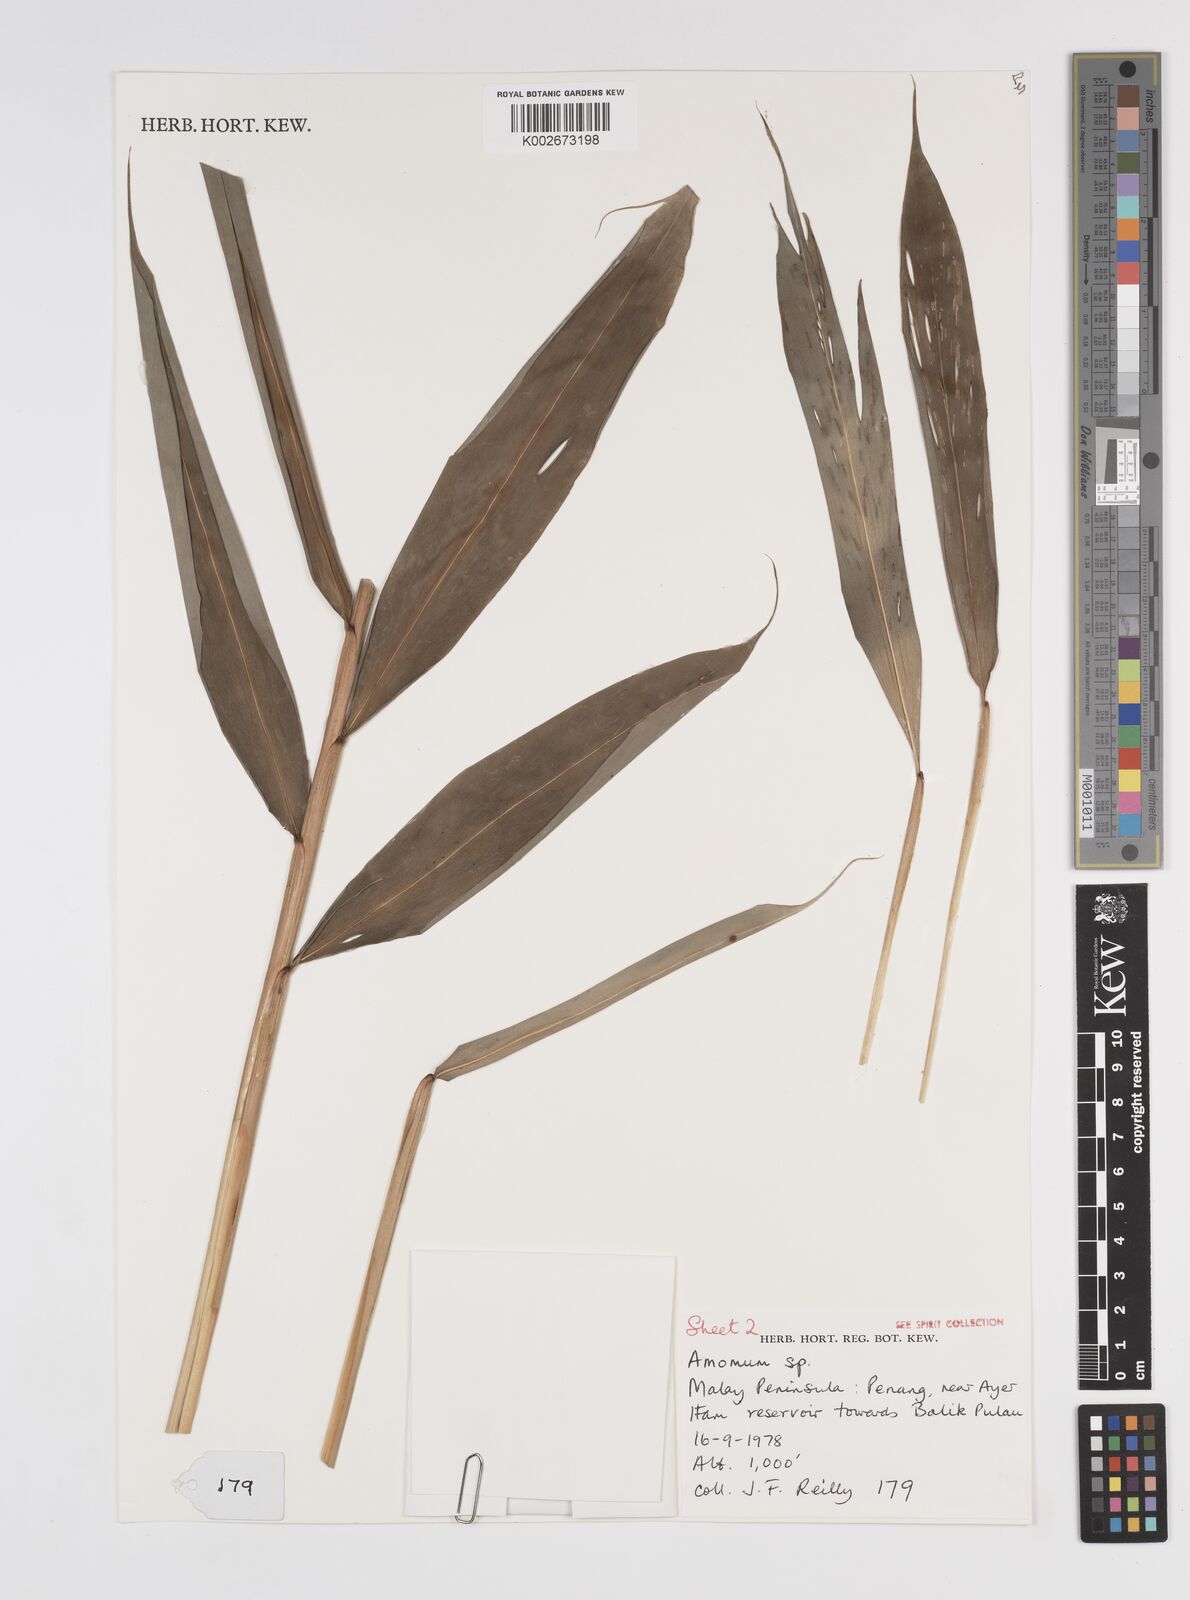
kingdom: Plantae
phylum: Tracheophyta
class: Liliopsida
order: Zingiberales
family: Zingiberaceae
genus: Amomum
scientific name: Amomum
